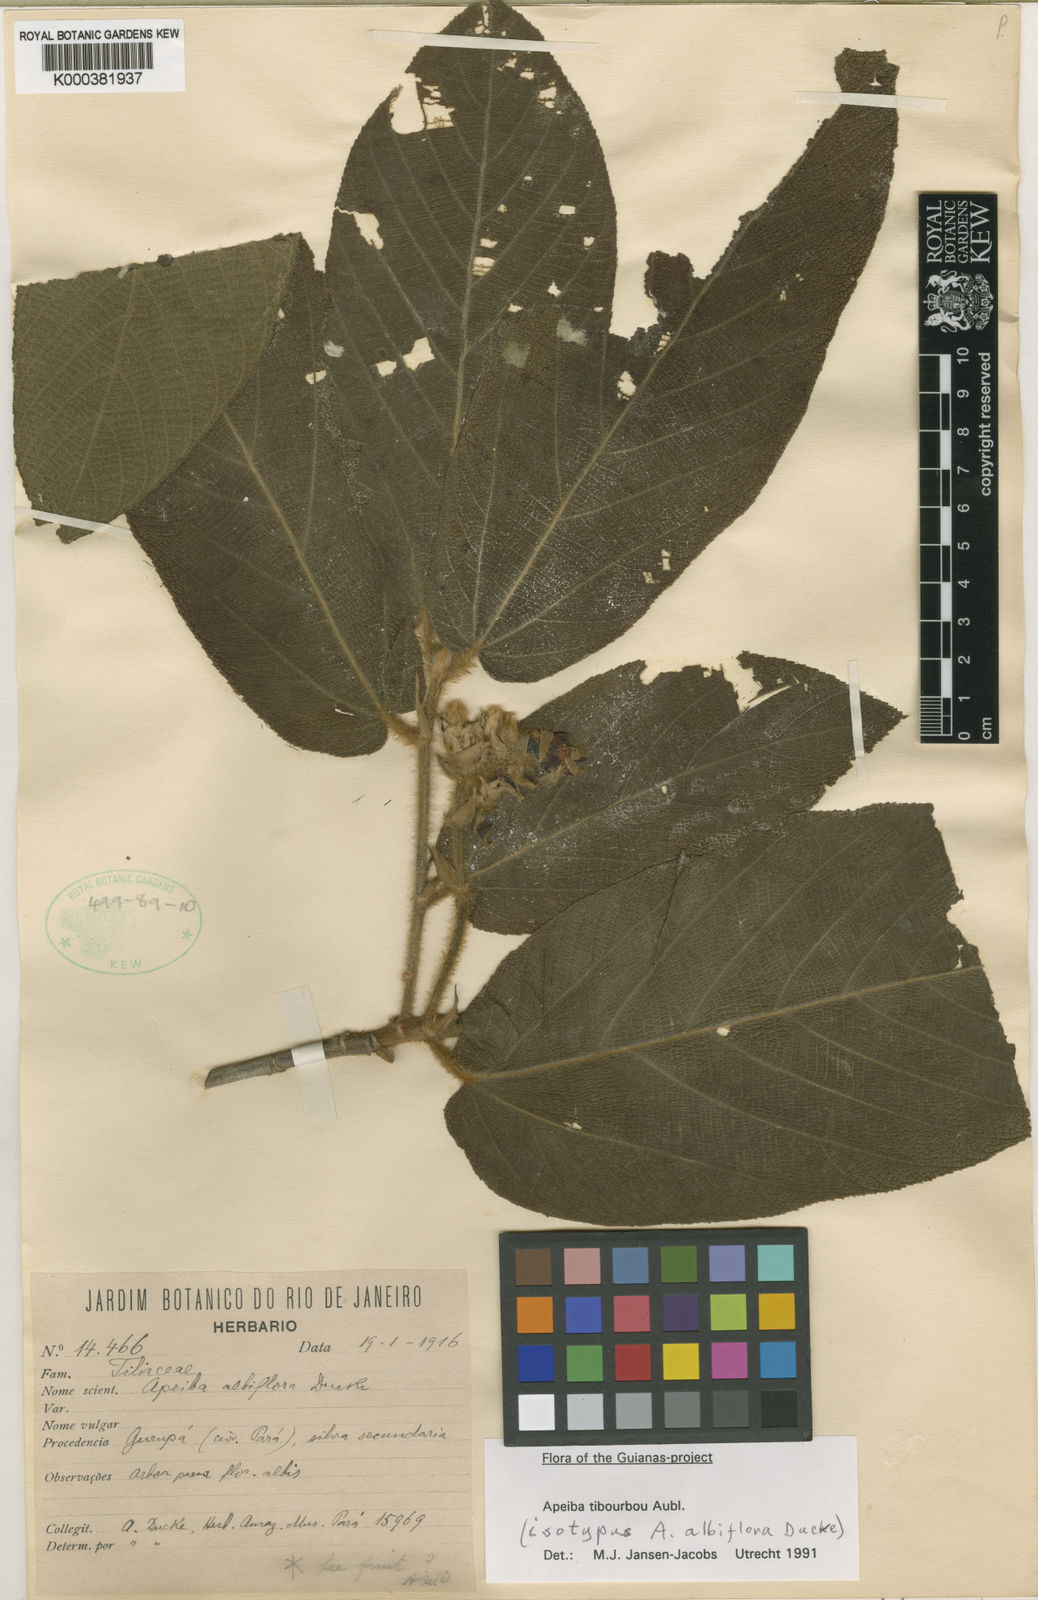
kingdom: Plantae
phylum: Tracheophyta
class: Magnoliopsida
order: Malvales
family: Malvaceae
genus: Apeiba
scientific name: Apeiba albiflora
